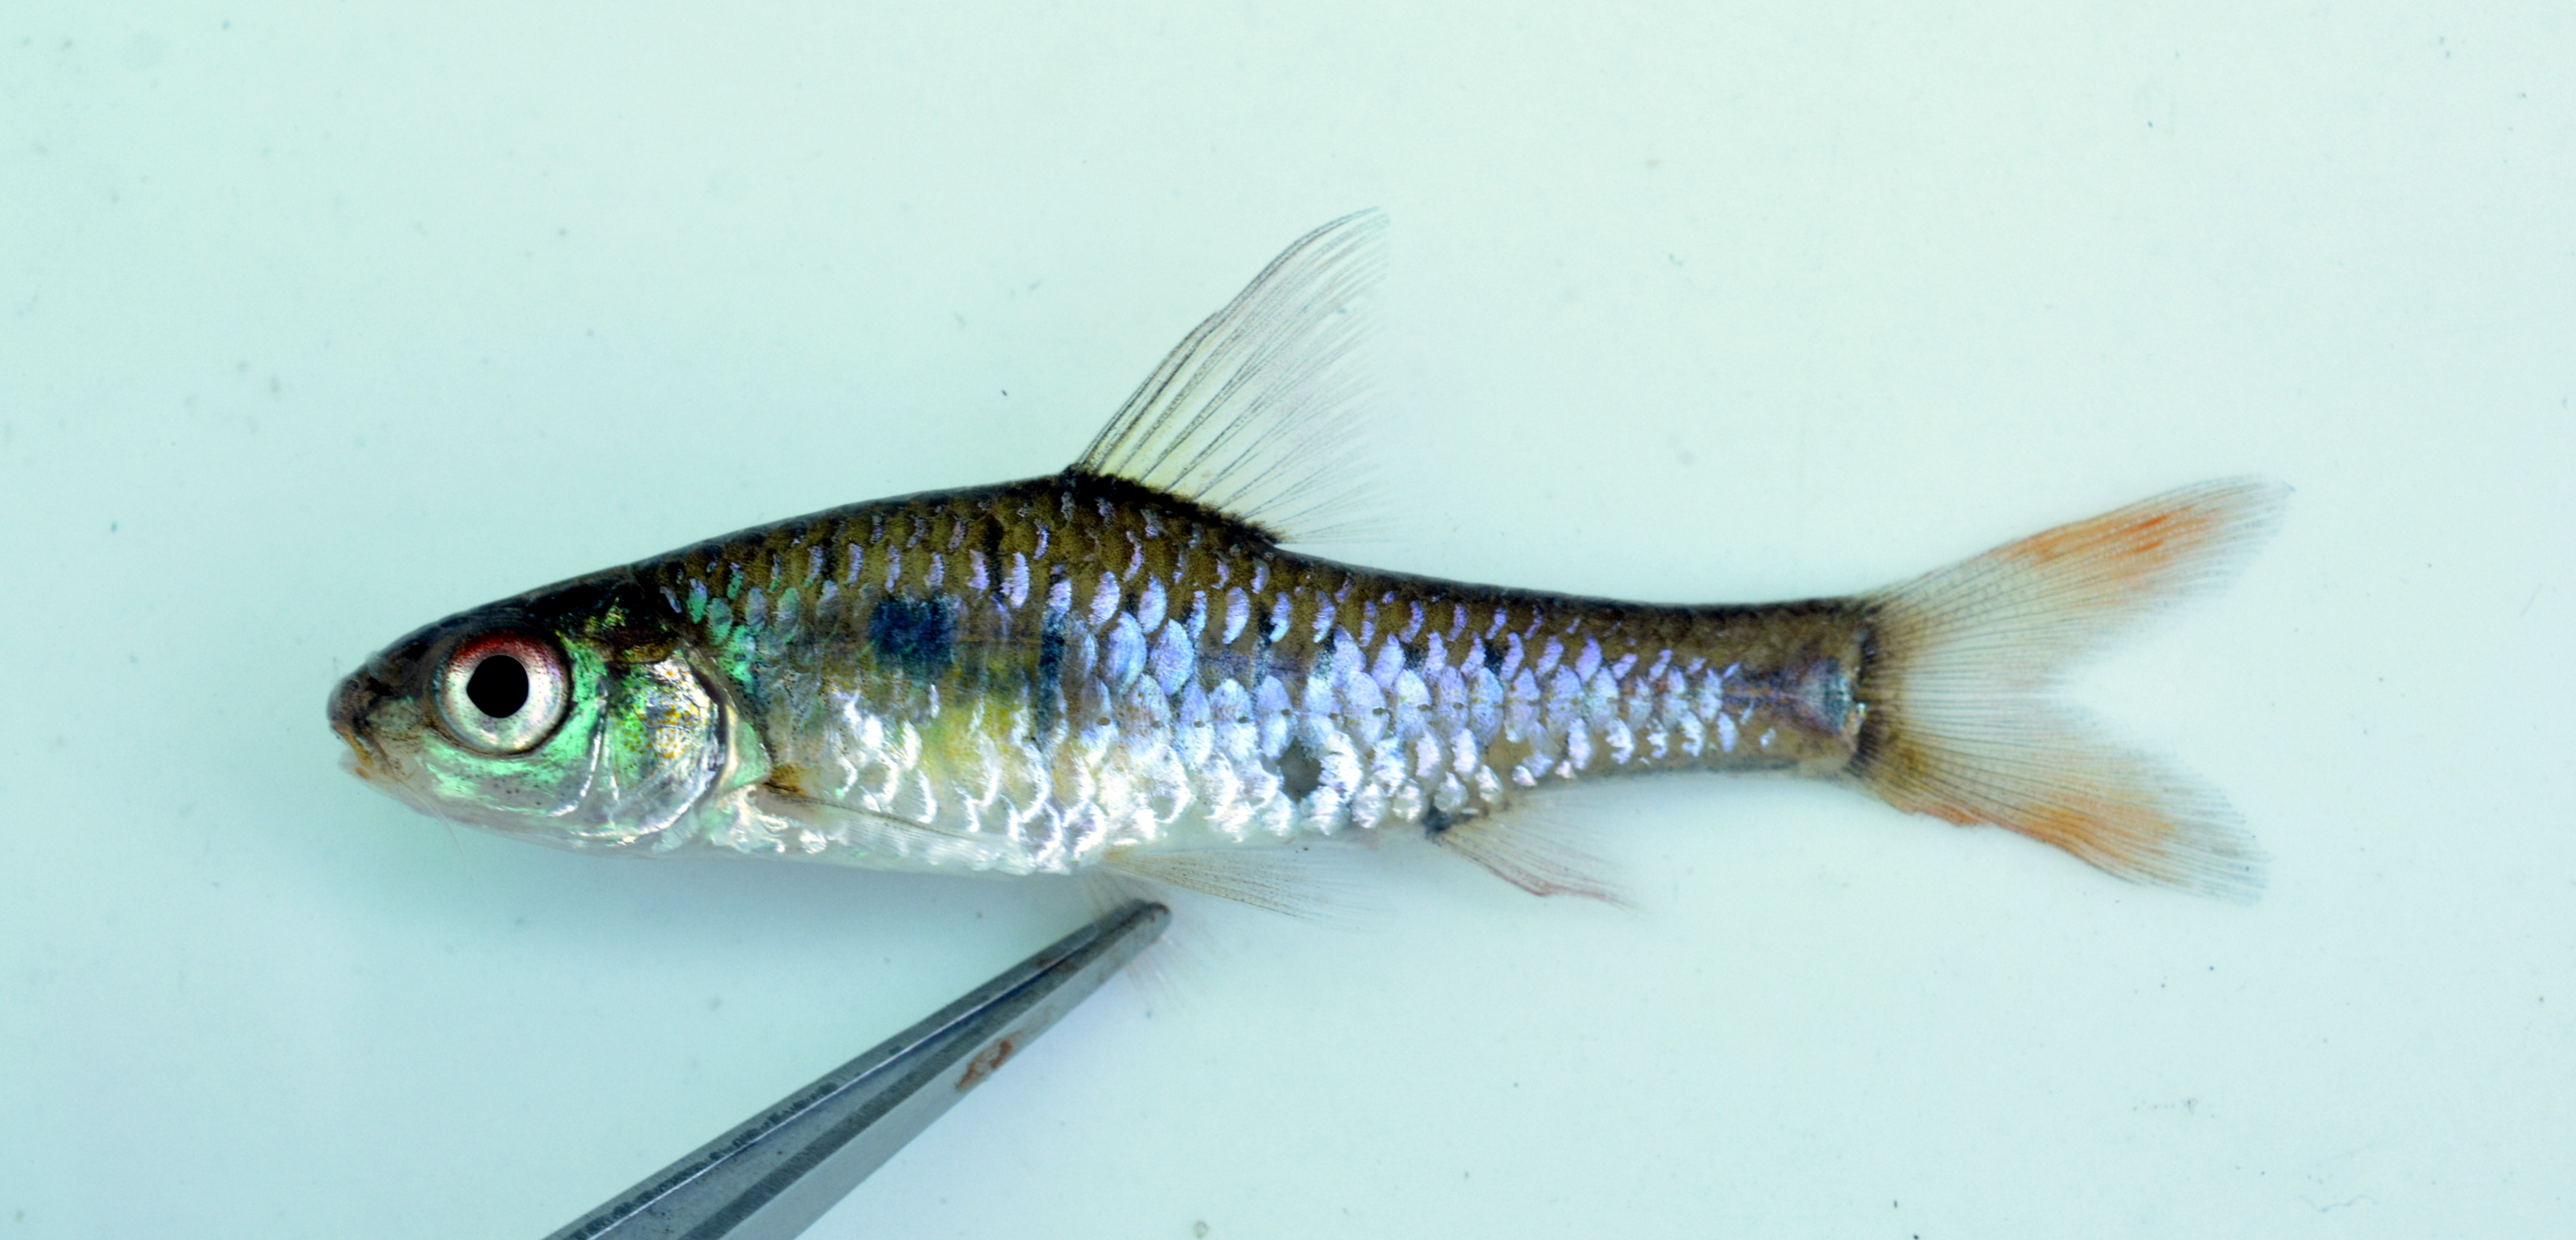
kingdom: Animalia
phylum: Chordata
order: Cypriniformes
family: Cyprinidae
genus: Enteromius
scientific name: Enteromius fasciolatus
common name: Red barb
